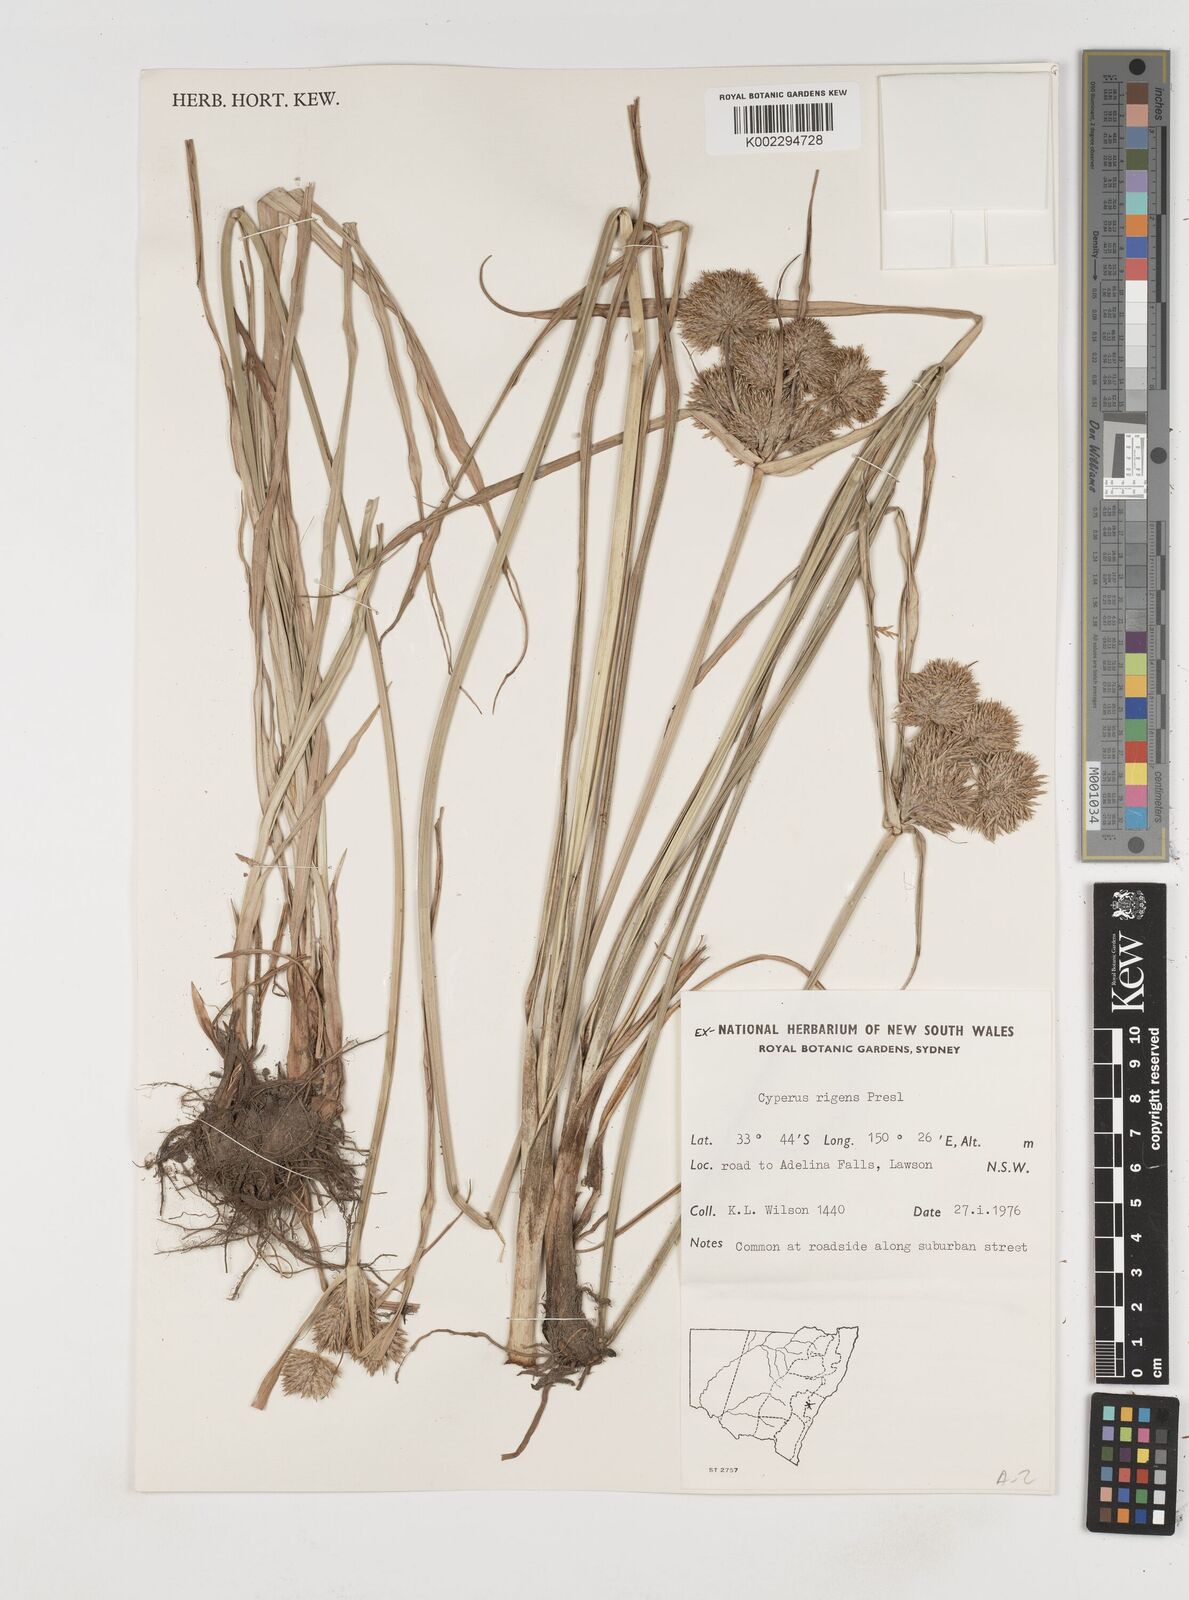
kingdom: Plantae
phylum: Tracheophyta
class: Liliopsida
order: Poales
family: Cyperaceae
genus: Cyperus
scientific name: Cyperus rigens
